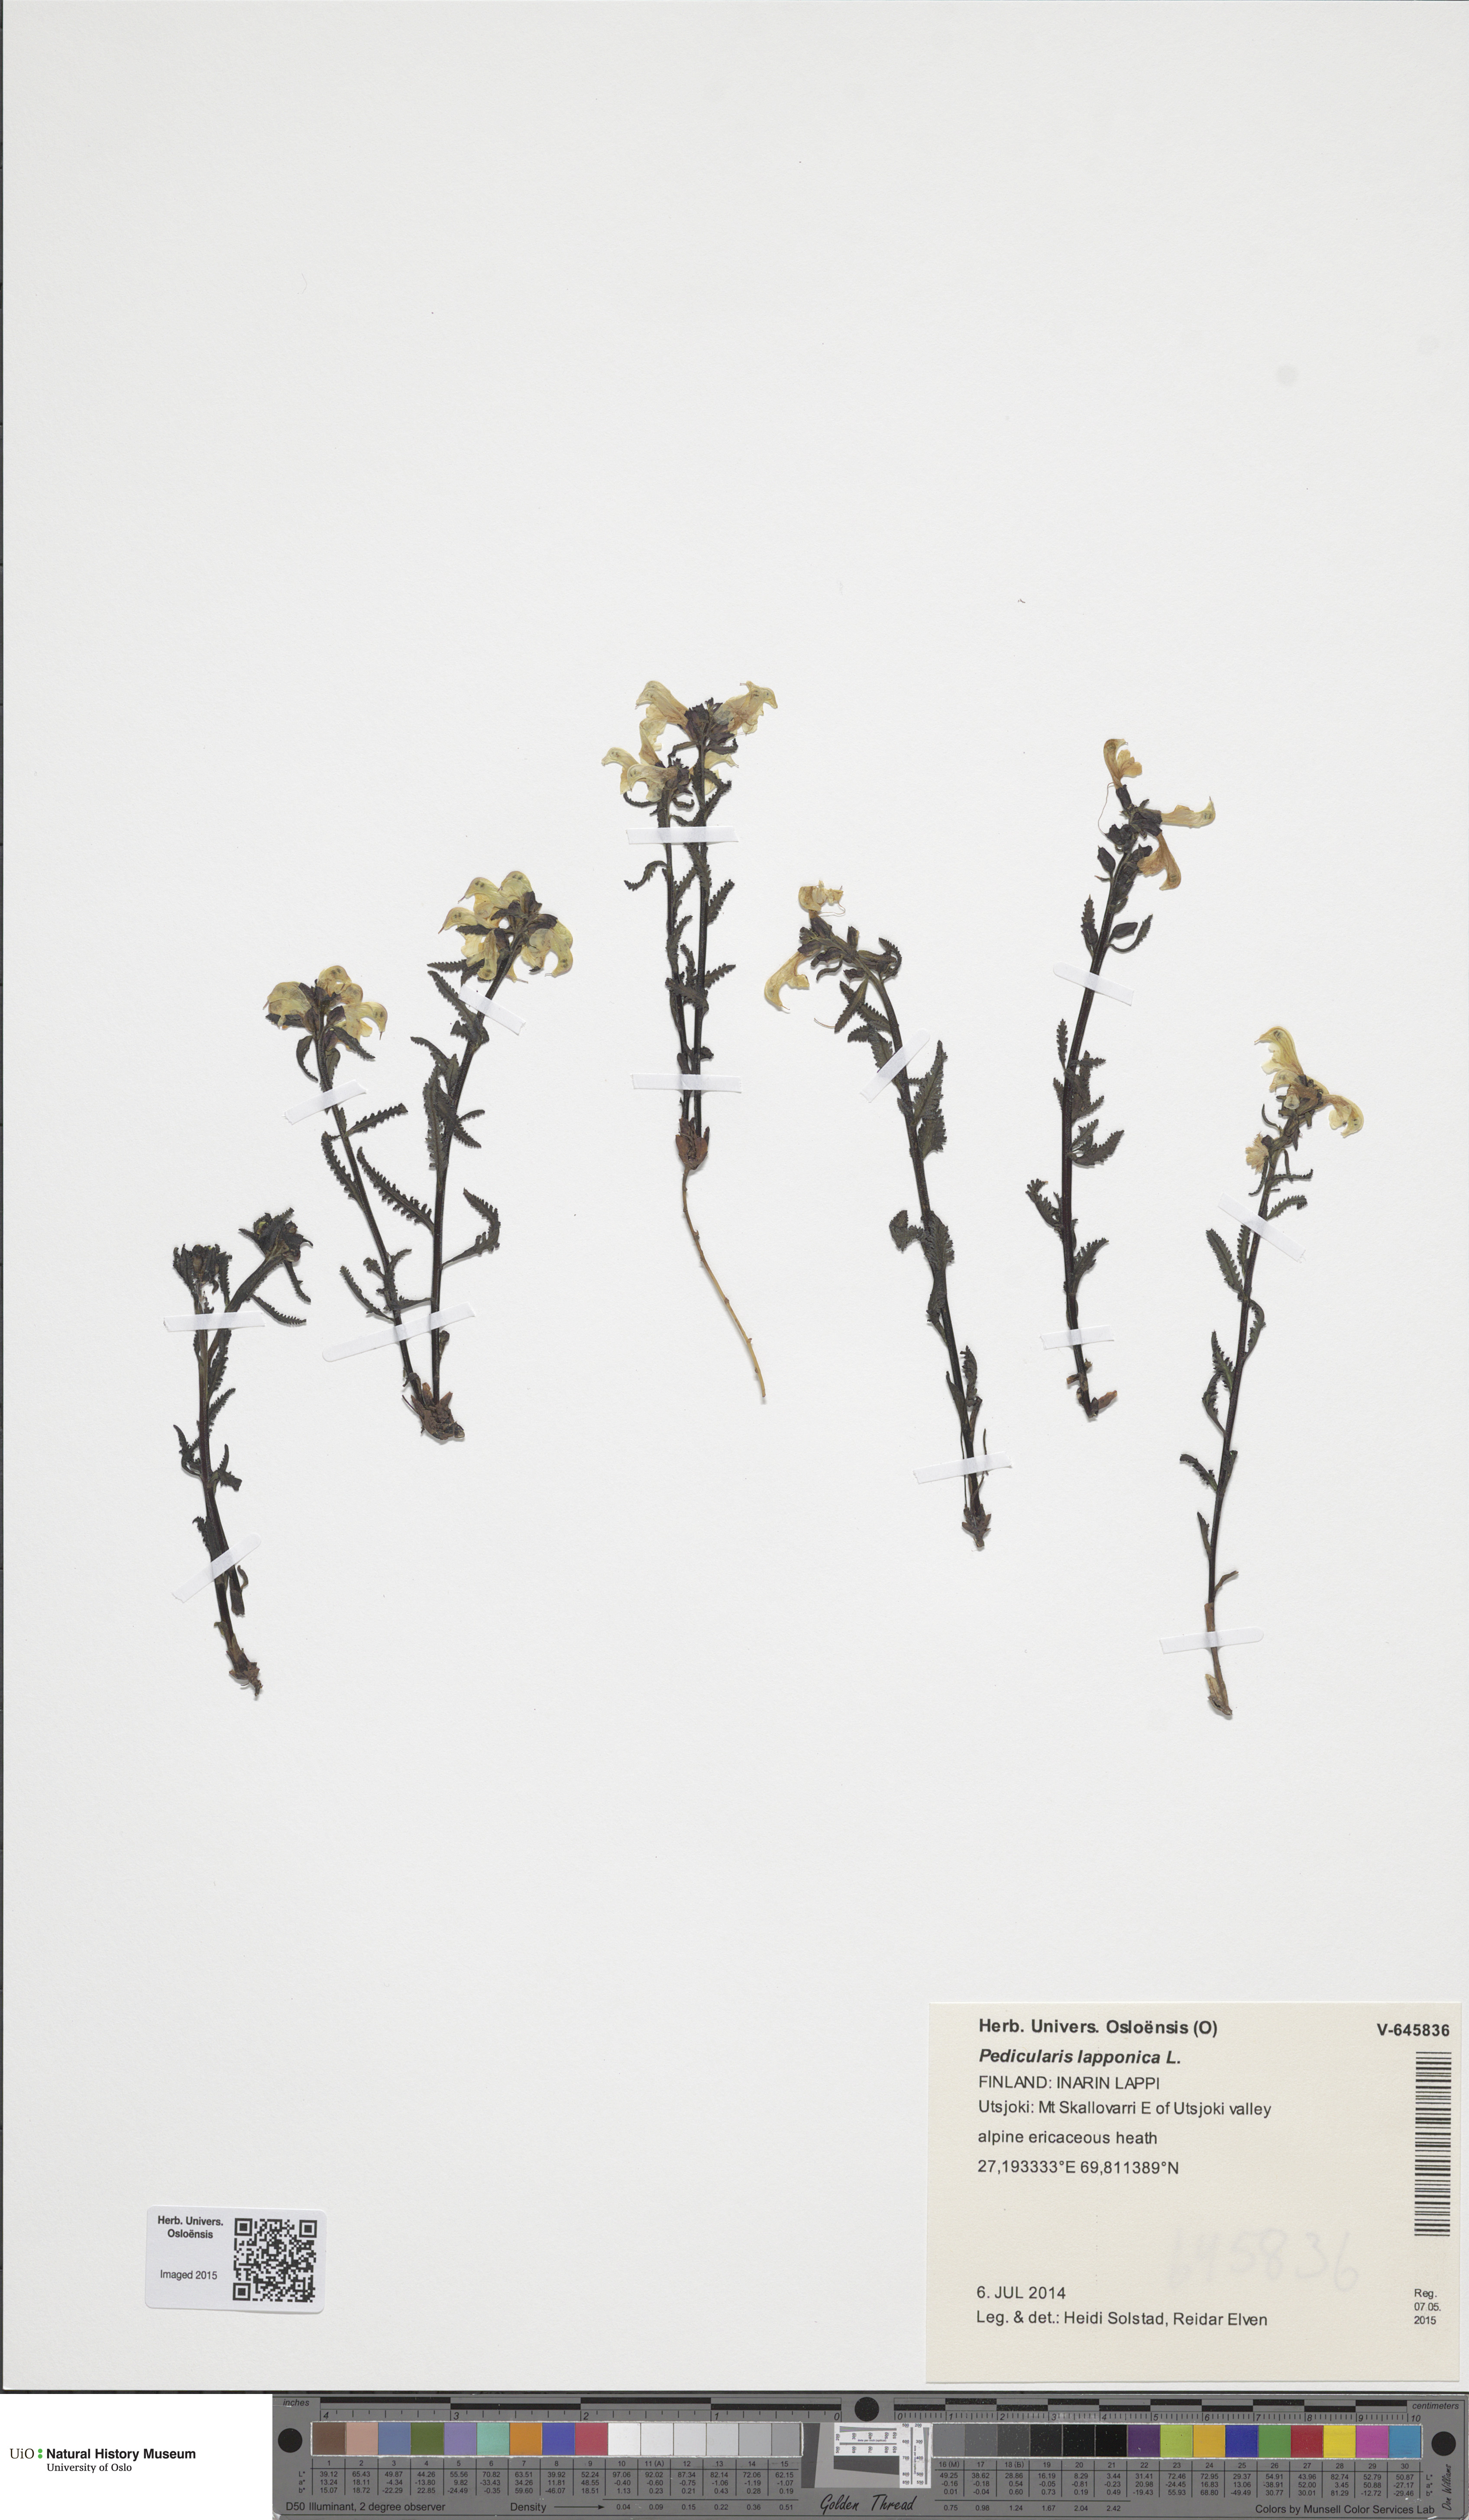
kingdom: Plantae
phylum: Tracheophyta
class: Magnoliopsida
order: Lamiales
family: Orobanchaceae
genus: Pedicularis
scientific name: Pedicularis lapponica
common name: Lapland lousewort
